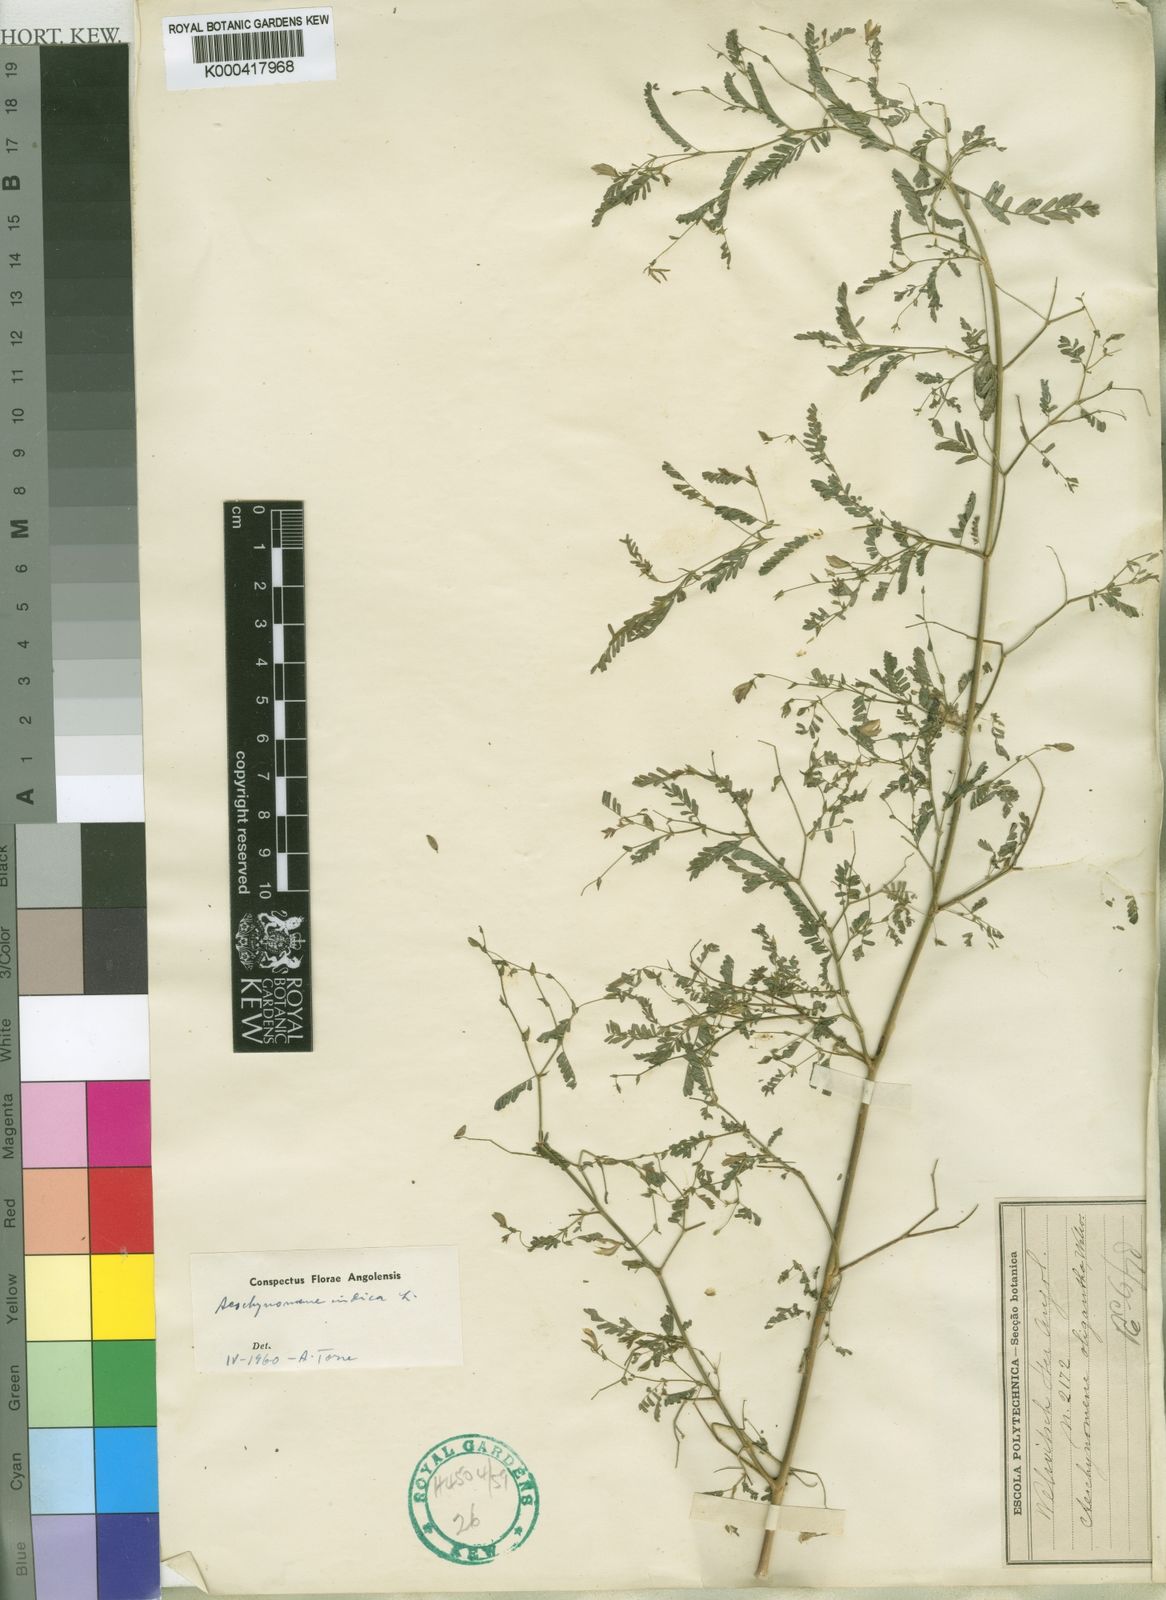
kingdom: Plantae
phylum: Tracheophyta
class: Magnoliopsida
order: Fabales
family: Fabaceae
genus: Aeschynomene
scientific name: Aeschynomene indica
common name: Indian jointvetch
